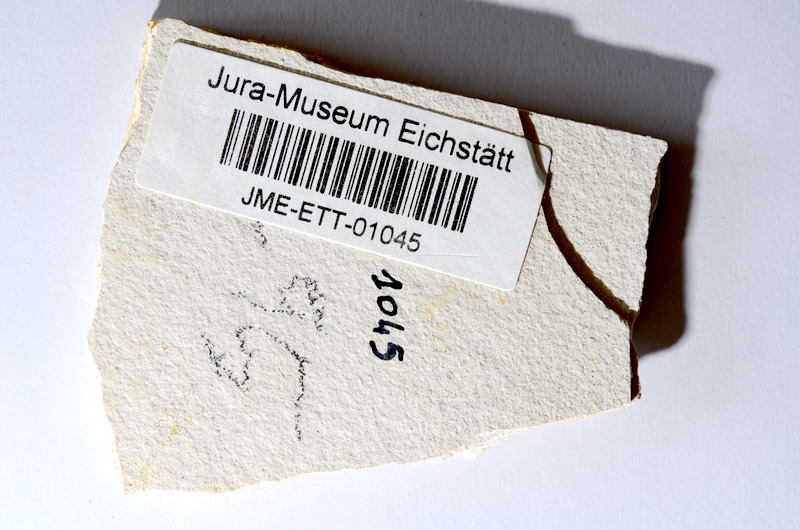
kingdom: Animalia
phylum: Chordata
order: Salmoniformes
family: Orthogonikleithridae
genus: Orthogonikleithrus
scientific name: Orthogonikleithrus hoelli
